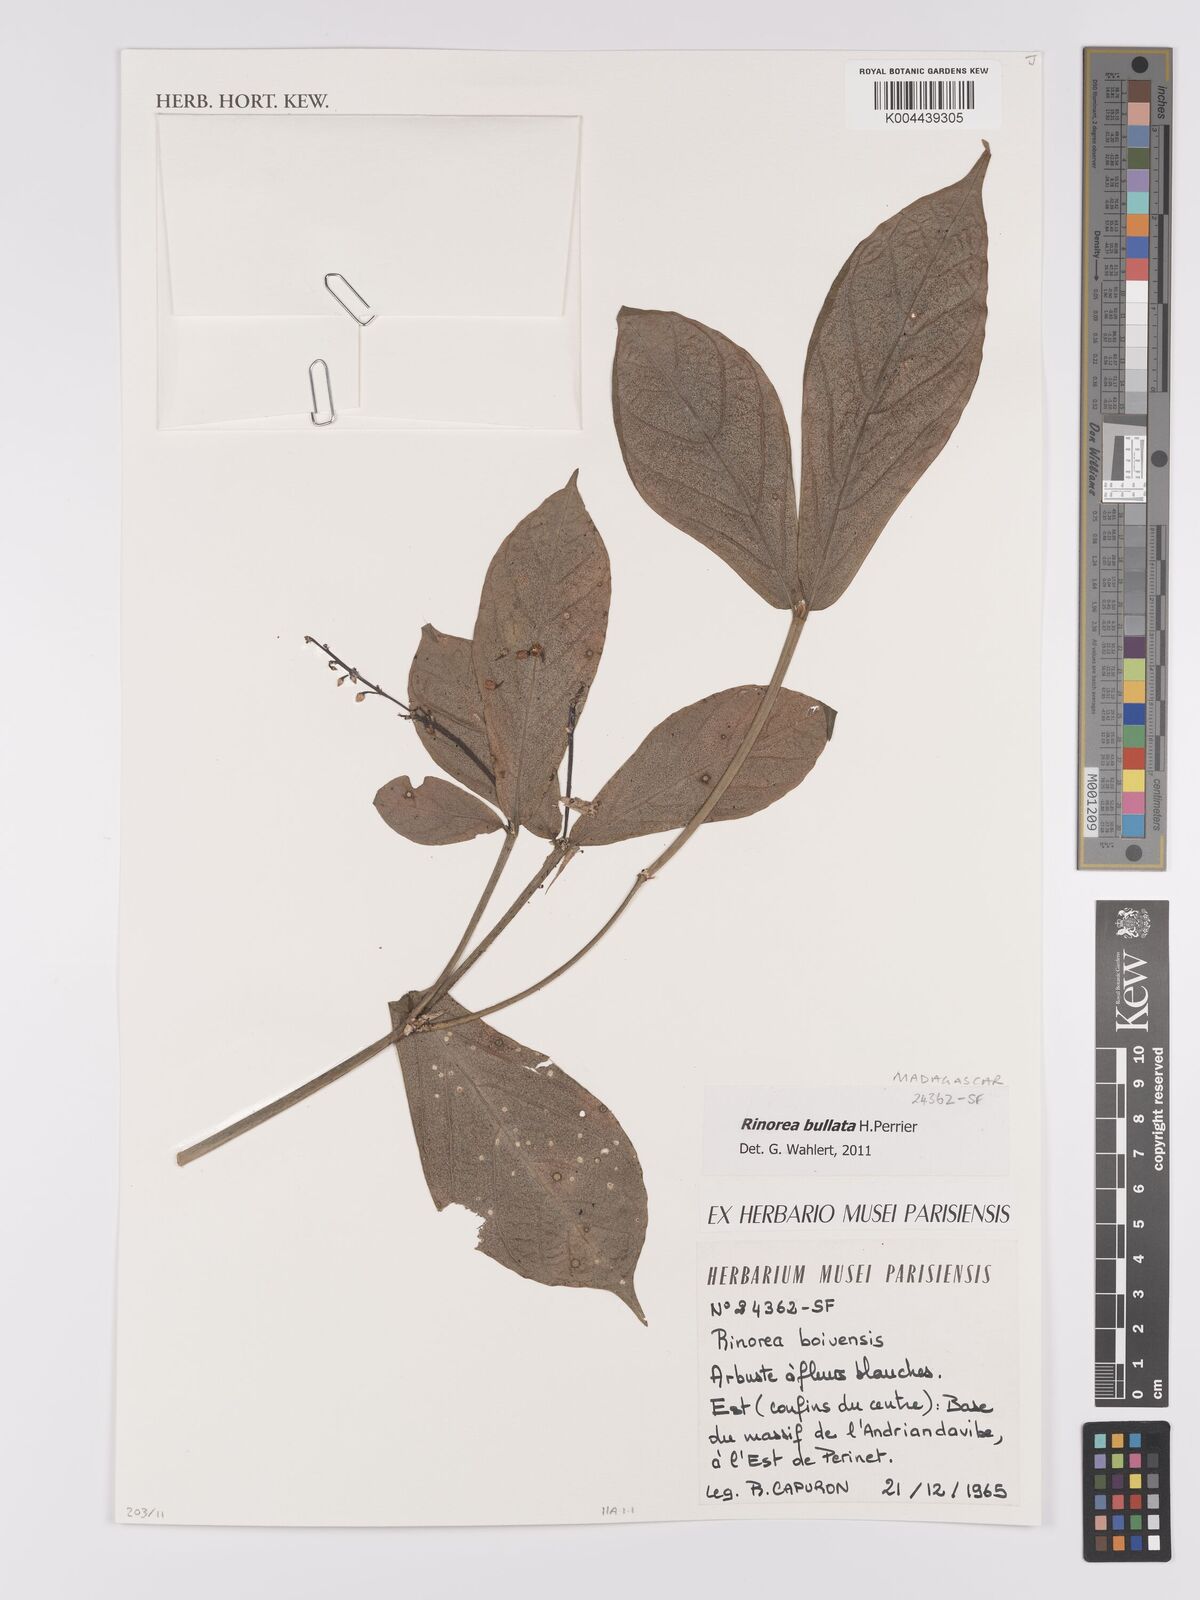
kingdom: Plantae
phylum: Tracheophyta
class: Magnoliopsida
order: Malpighiales
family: Violaceae
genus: Rinorea
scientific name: Rinorea bullata
